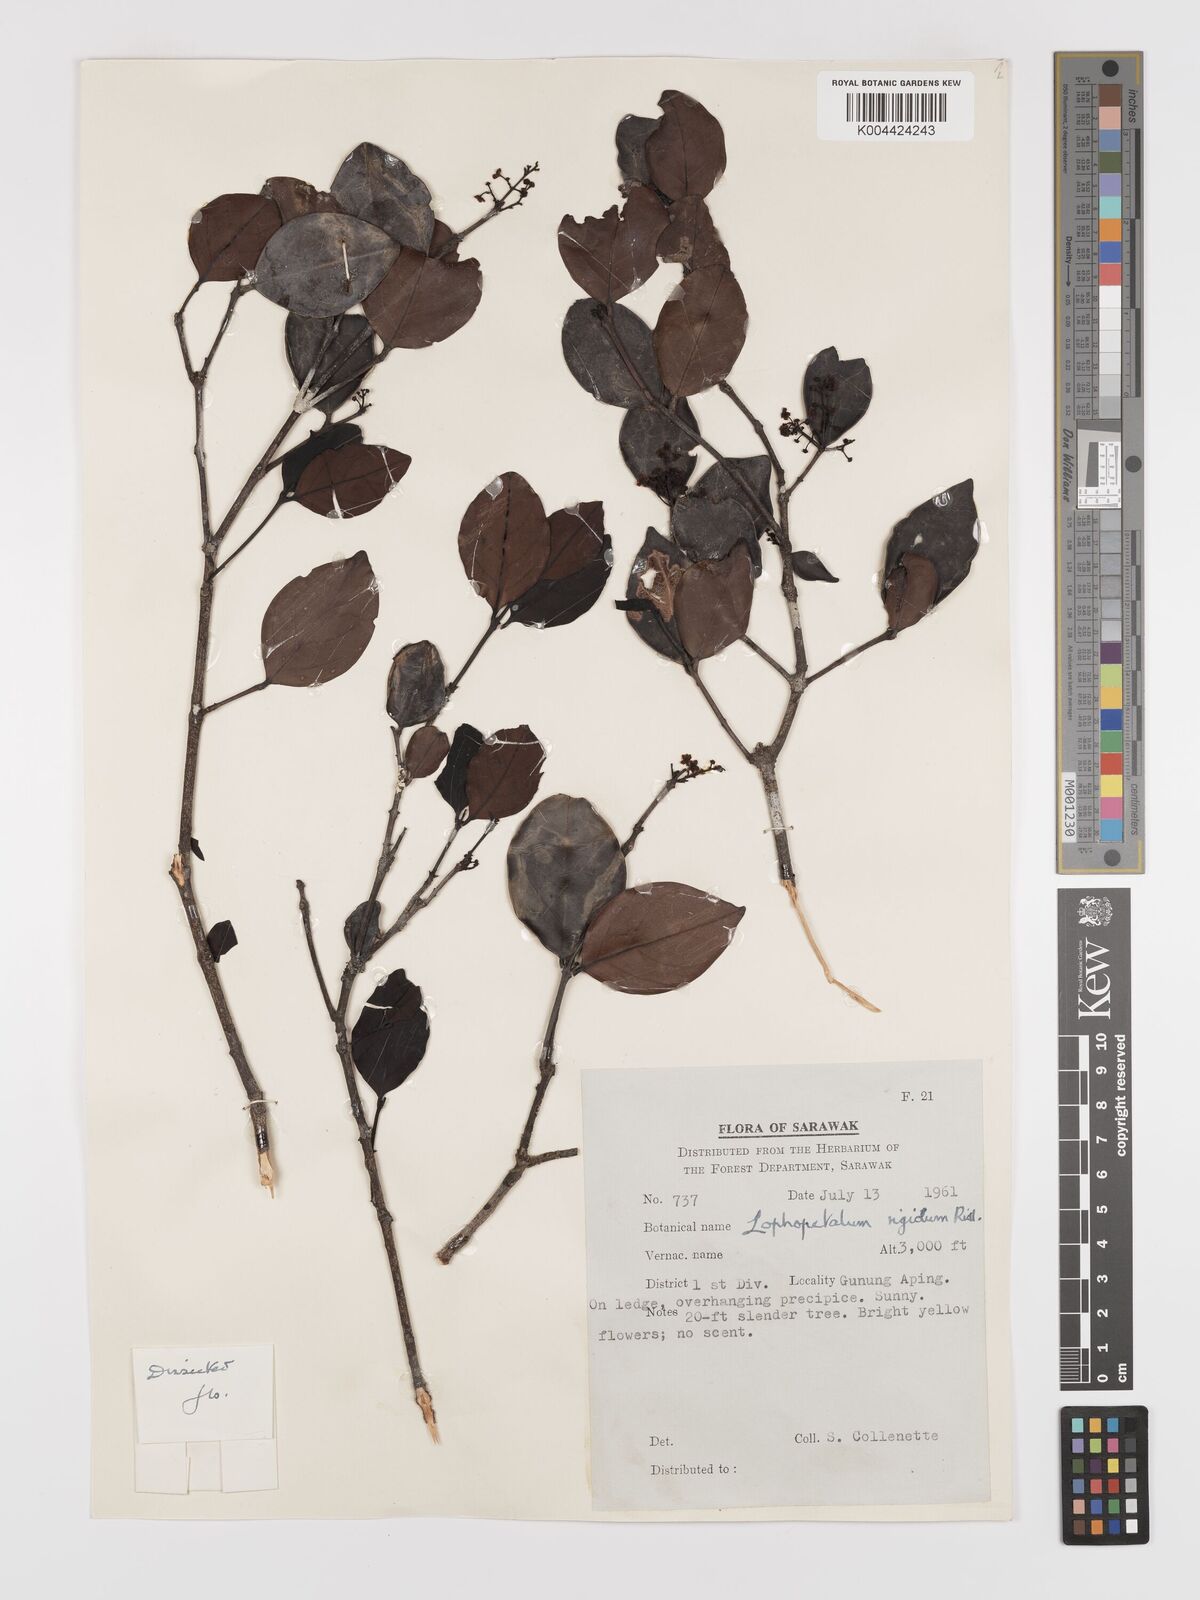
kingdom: Plantae
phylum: Tracheophyta
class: Magnoliopsida
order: Celastrales
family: Celastraceae
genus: Lophopetalum
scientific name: Lophopetalum rigidum
